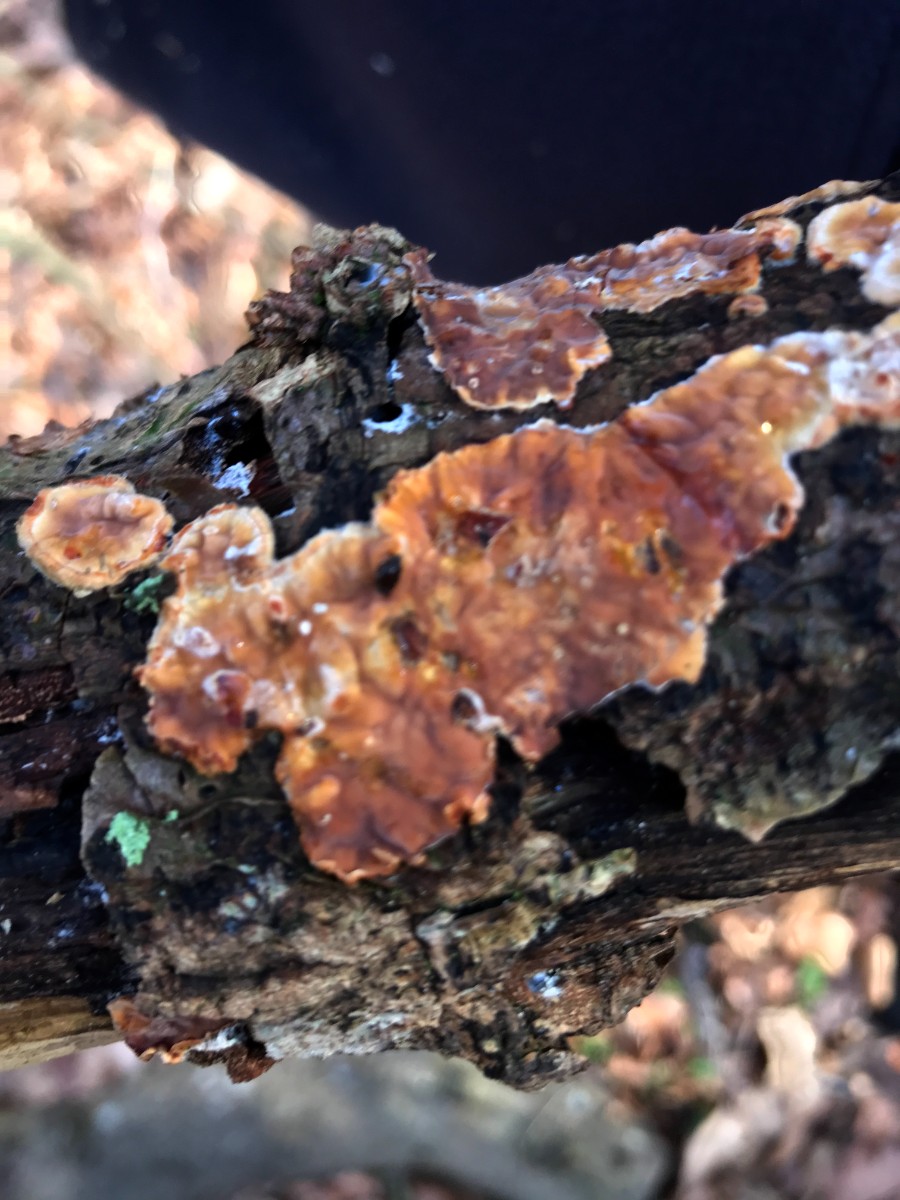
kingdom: Fungi
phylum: Basidiomycota
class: Agaricomycetes
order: Russulales
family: Stereaceae
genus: Stereum
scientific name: Stereum hirsutum
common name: håret lædersvamp
